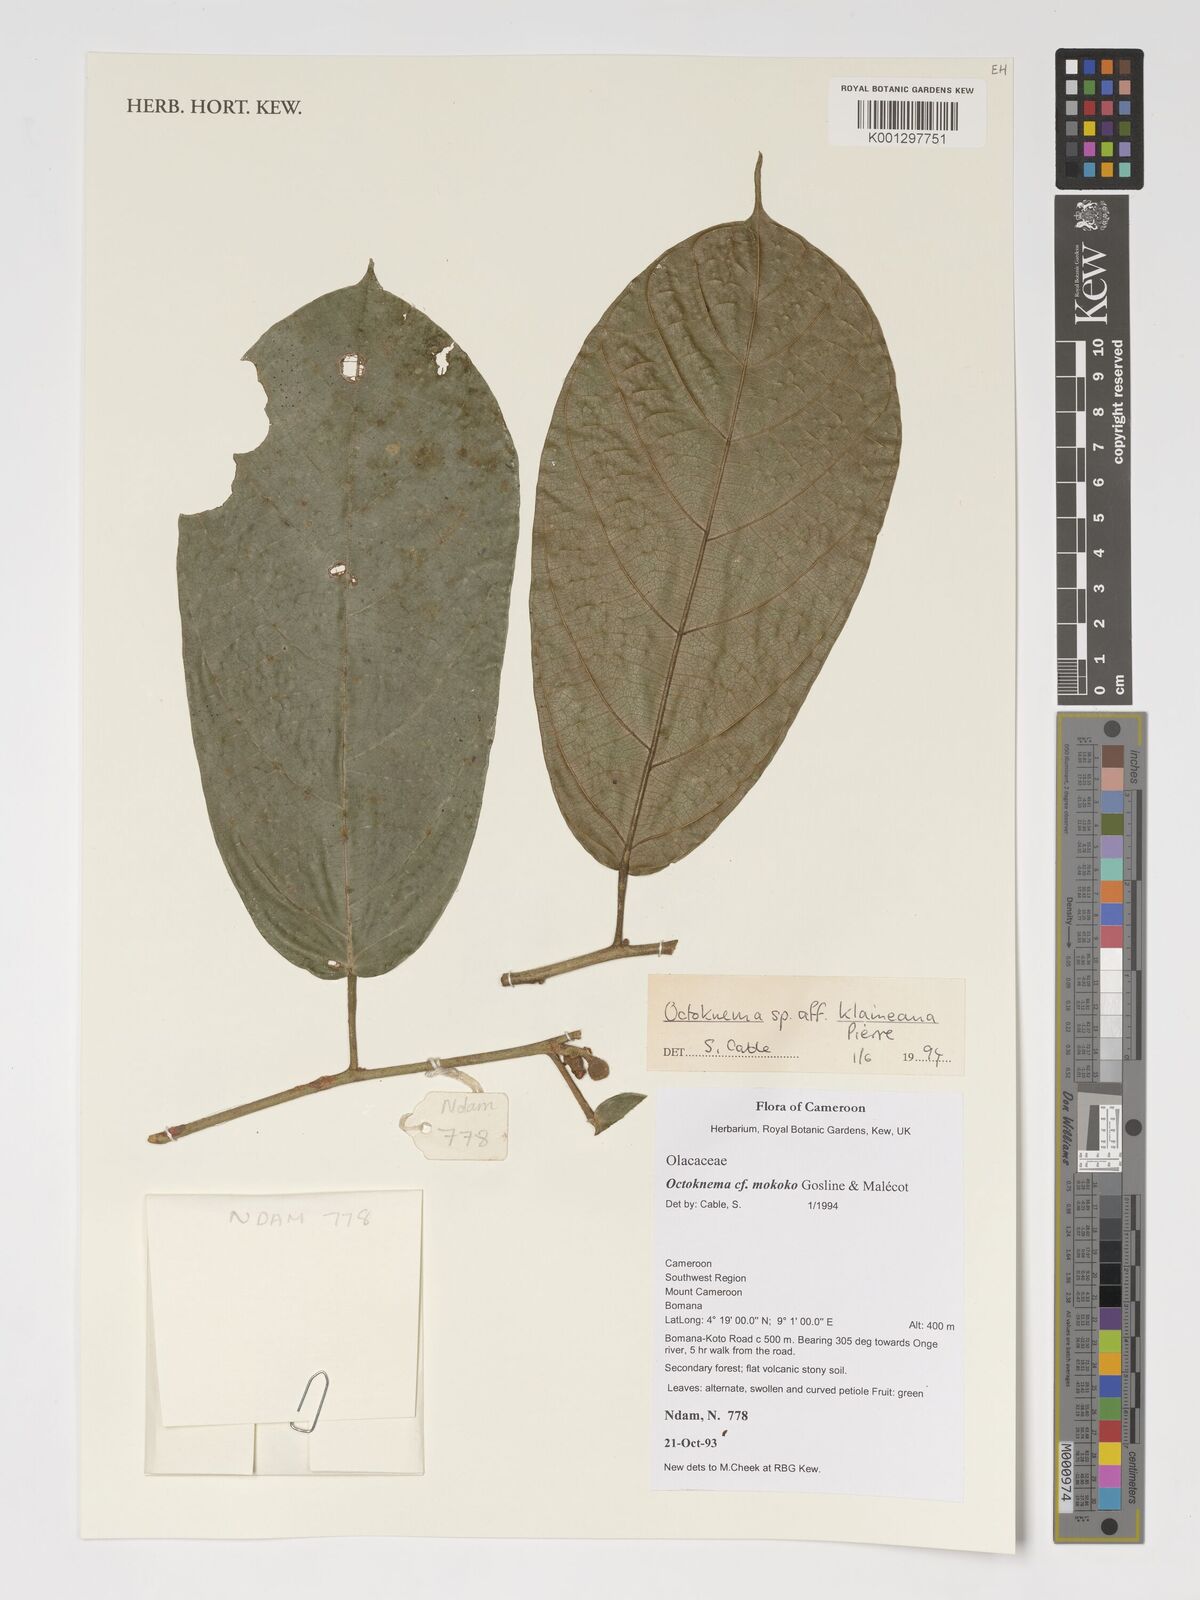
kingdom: Plantae
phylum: Tracheophyta
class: Magnoliopsida
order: Santalales
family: Octoknemaceae
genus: Octoknema
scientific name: Octoknema klaineana
